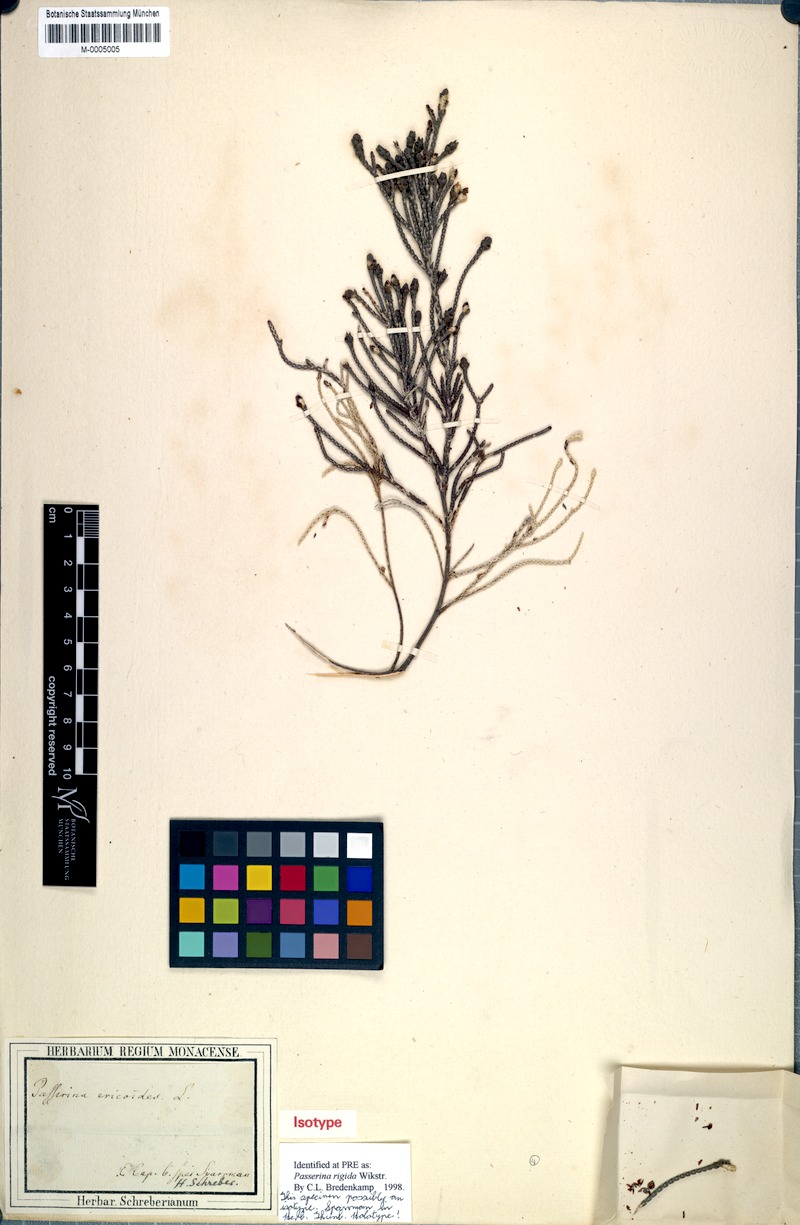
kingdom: Plantae
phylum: Tracheophyta
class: Magnoliopsida
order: Malvales
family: Thymelaeaceae
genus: Passerina
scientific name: Passerina rigida
